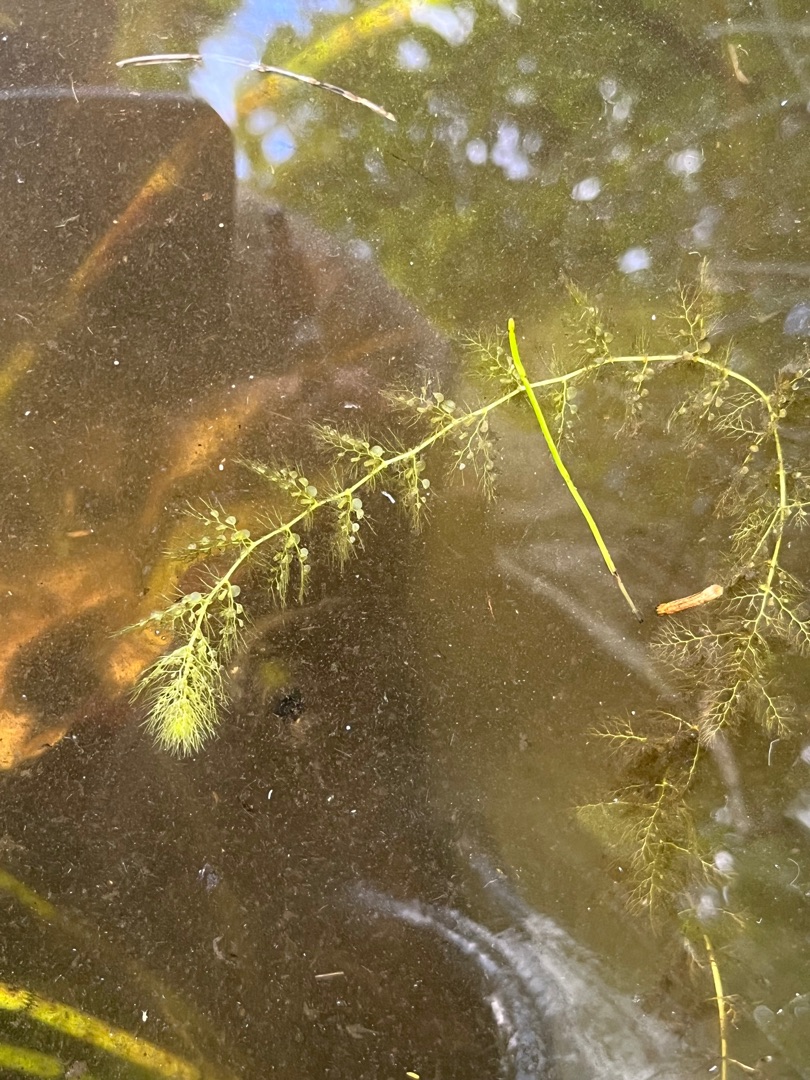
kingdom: Plantae
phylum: Tracheophyta
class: Magnoliopsida
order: Lamiales
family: Lentibulariaceae
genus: Utricularia
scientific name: Utricularia
